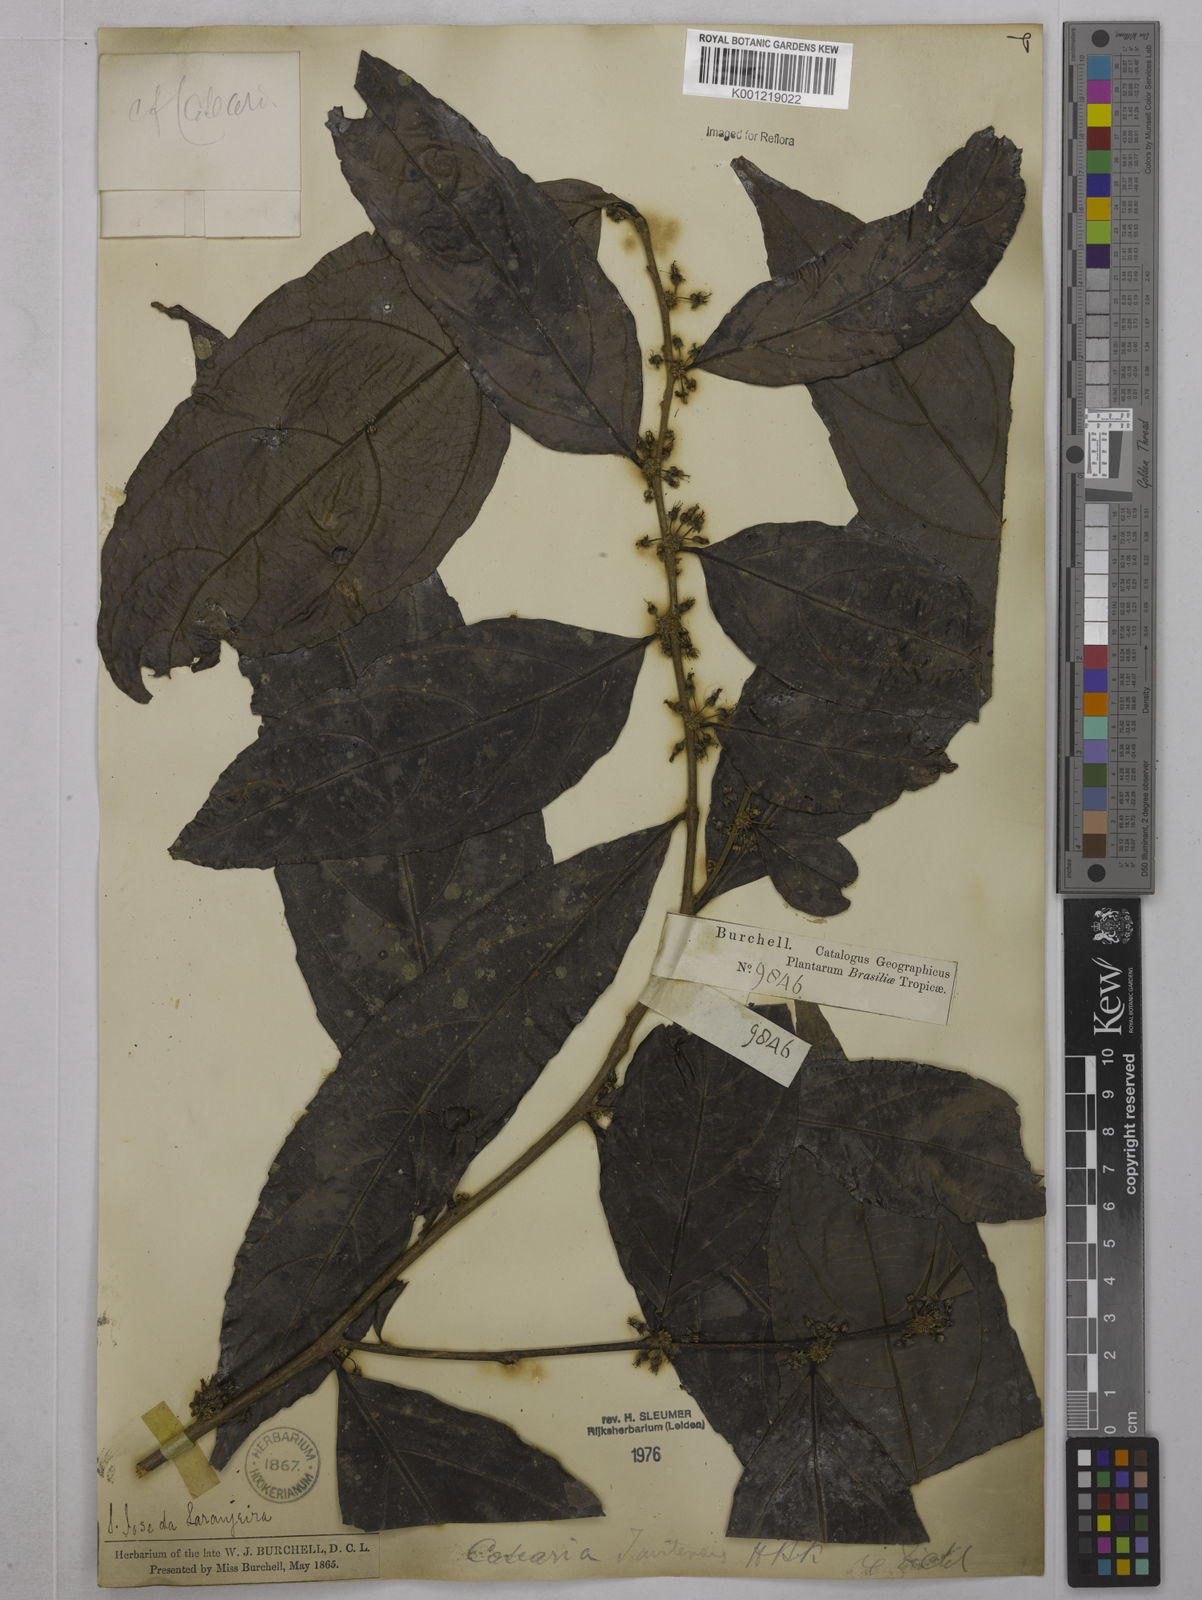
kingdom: Plantae
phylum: Tracheophyta
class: Magnoliopsida
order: Malpighiales
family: Salicaceae
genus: Piparea
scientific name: Piparea multiflora
